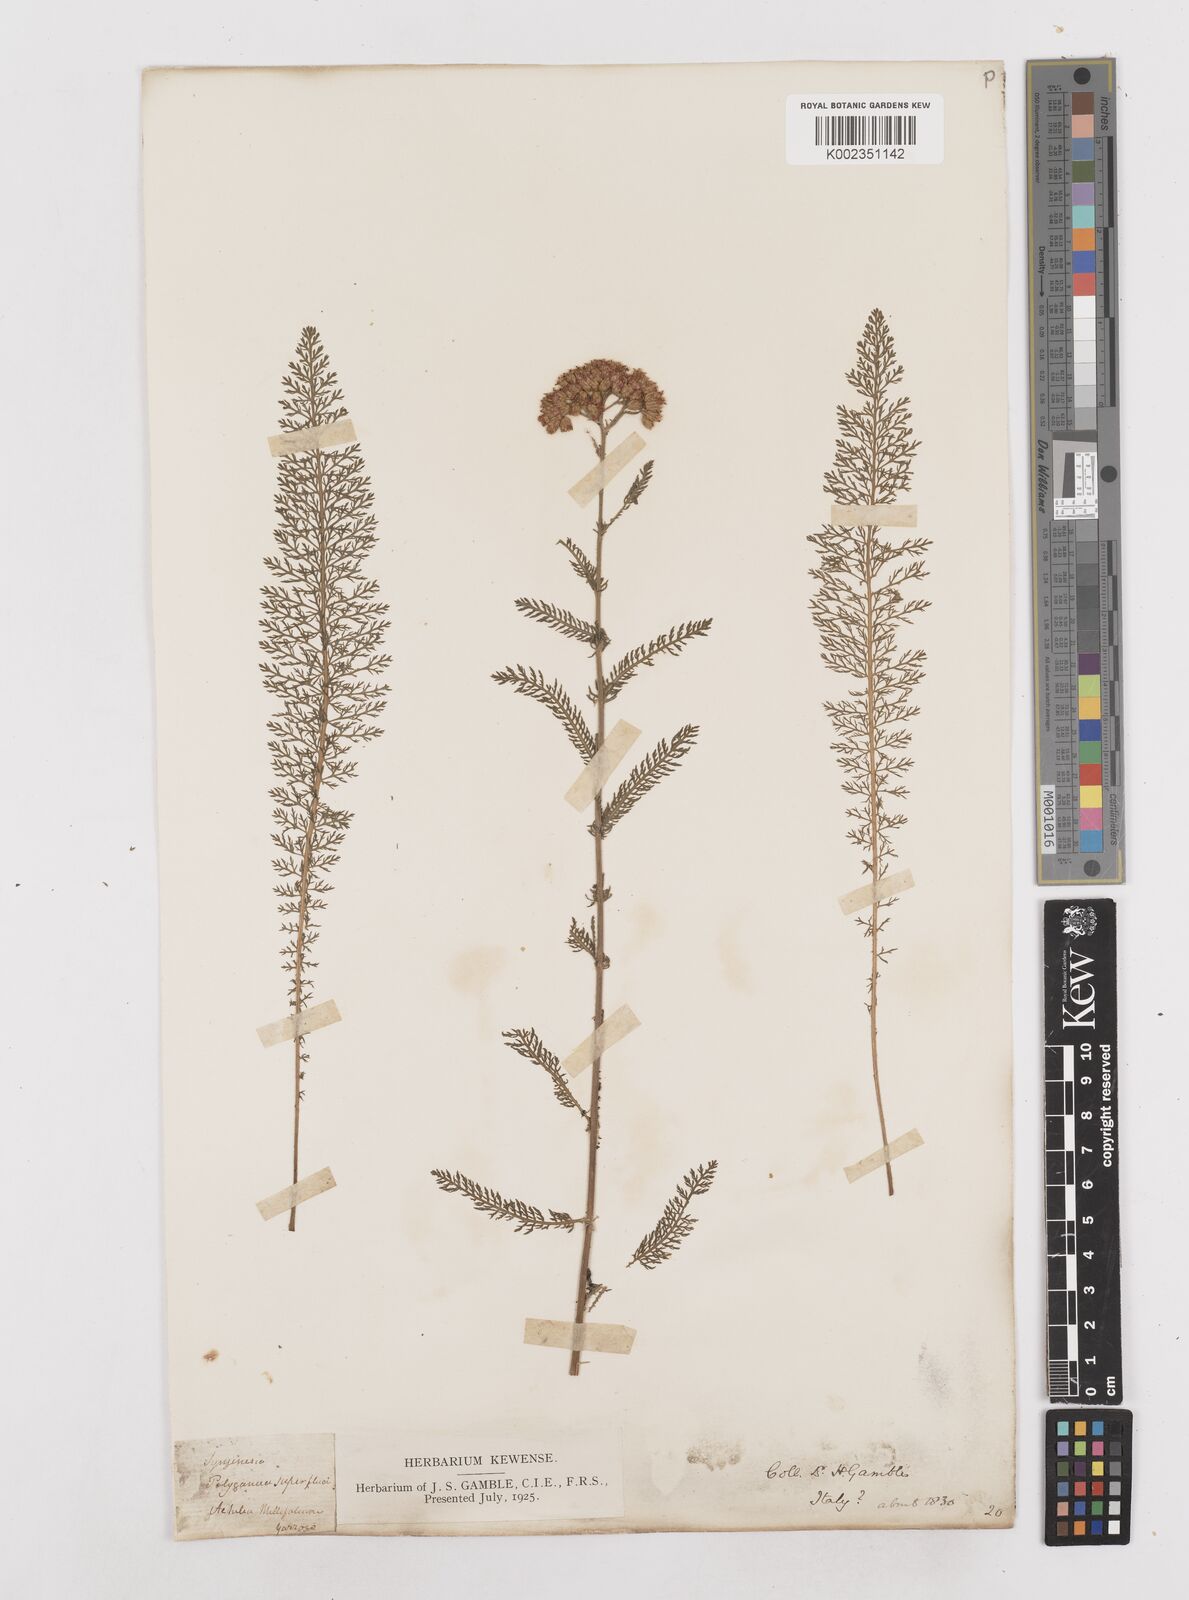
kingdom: Plantae
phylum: Tracheophyta
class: Magnoliopsida
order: Asterales
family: Asteraceae
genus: Achillea
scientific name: Achillea millefolium
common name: Yarrow
